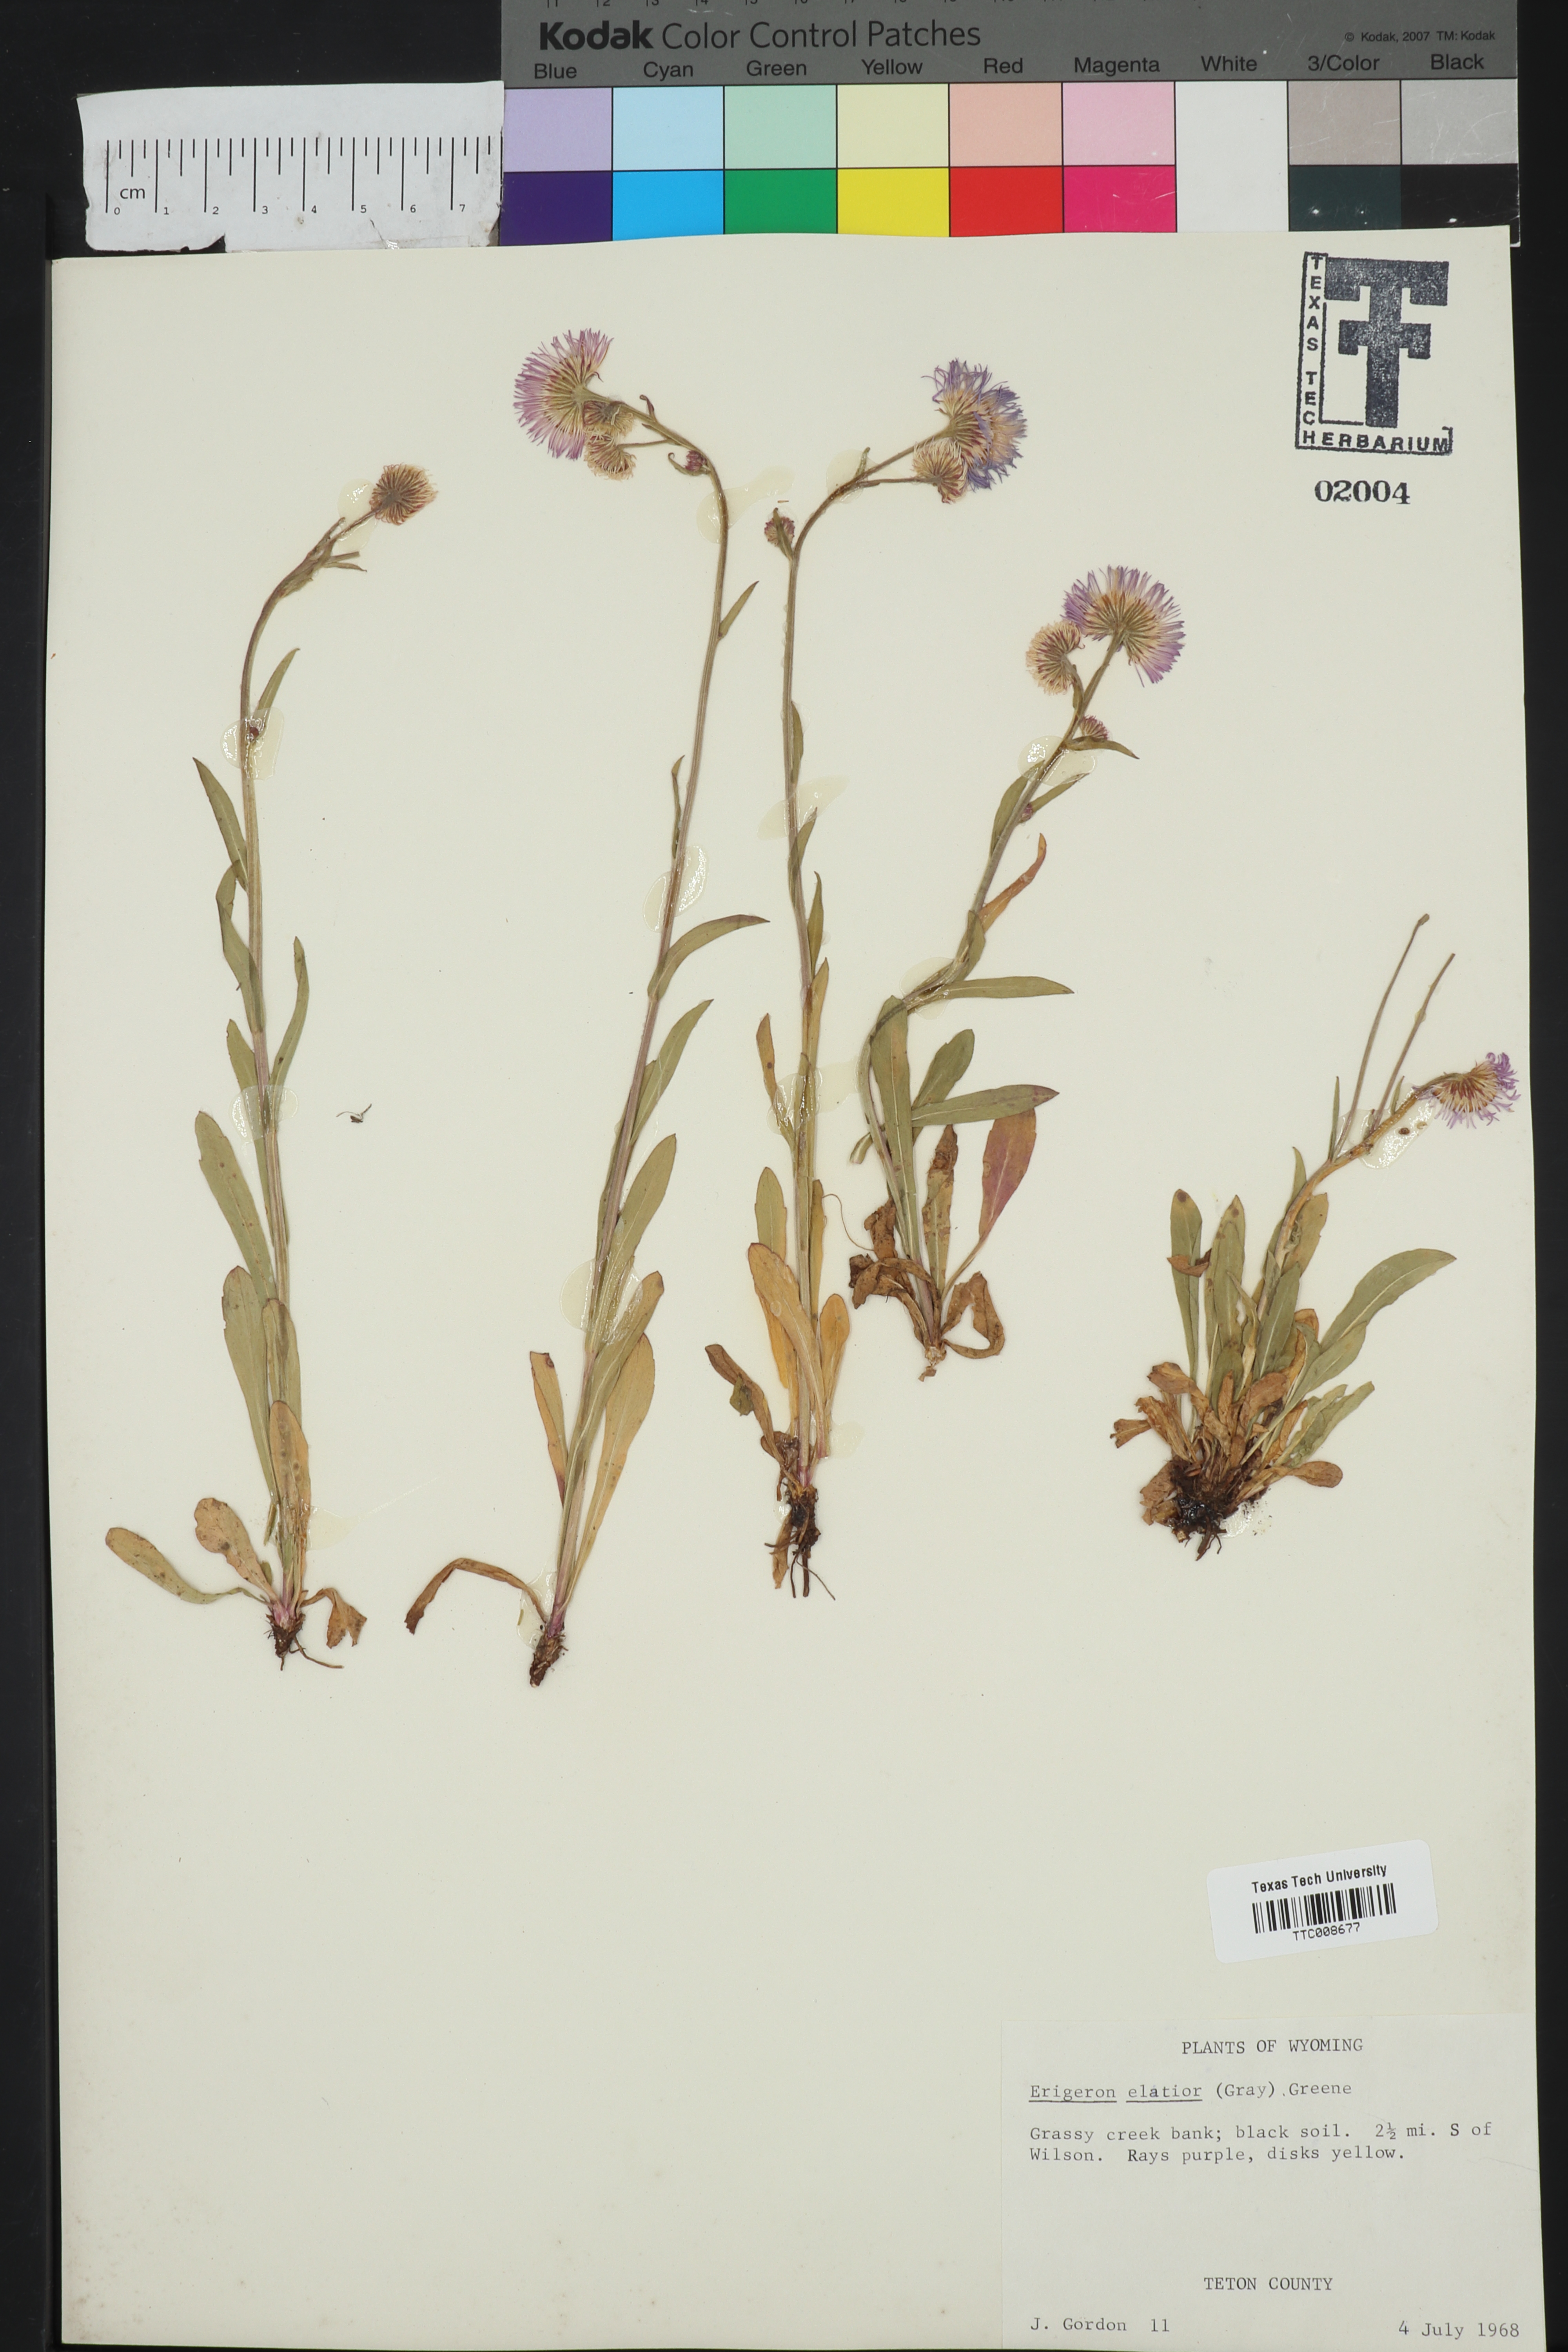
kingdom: Plantae
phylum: Tracheophyta
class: Magnoliopsida
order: Asterales
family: Asteraceae
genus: Erigeron
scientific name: Erigeron elatior
